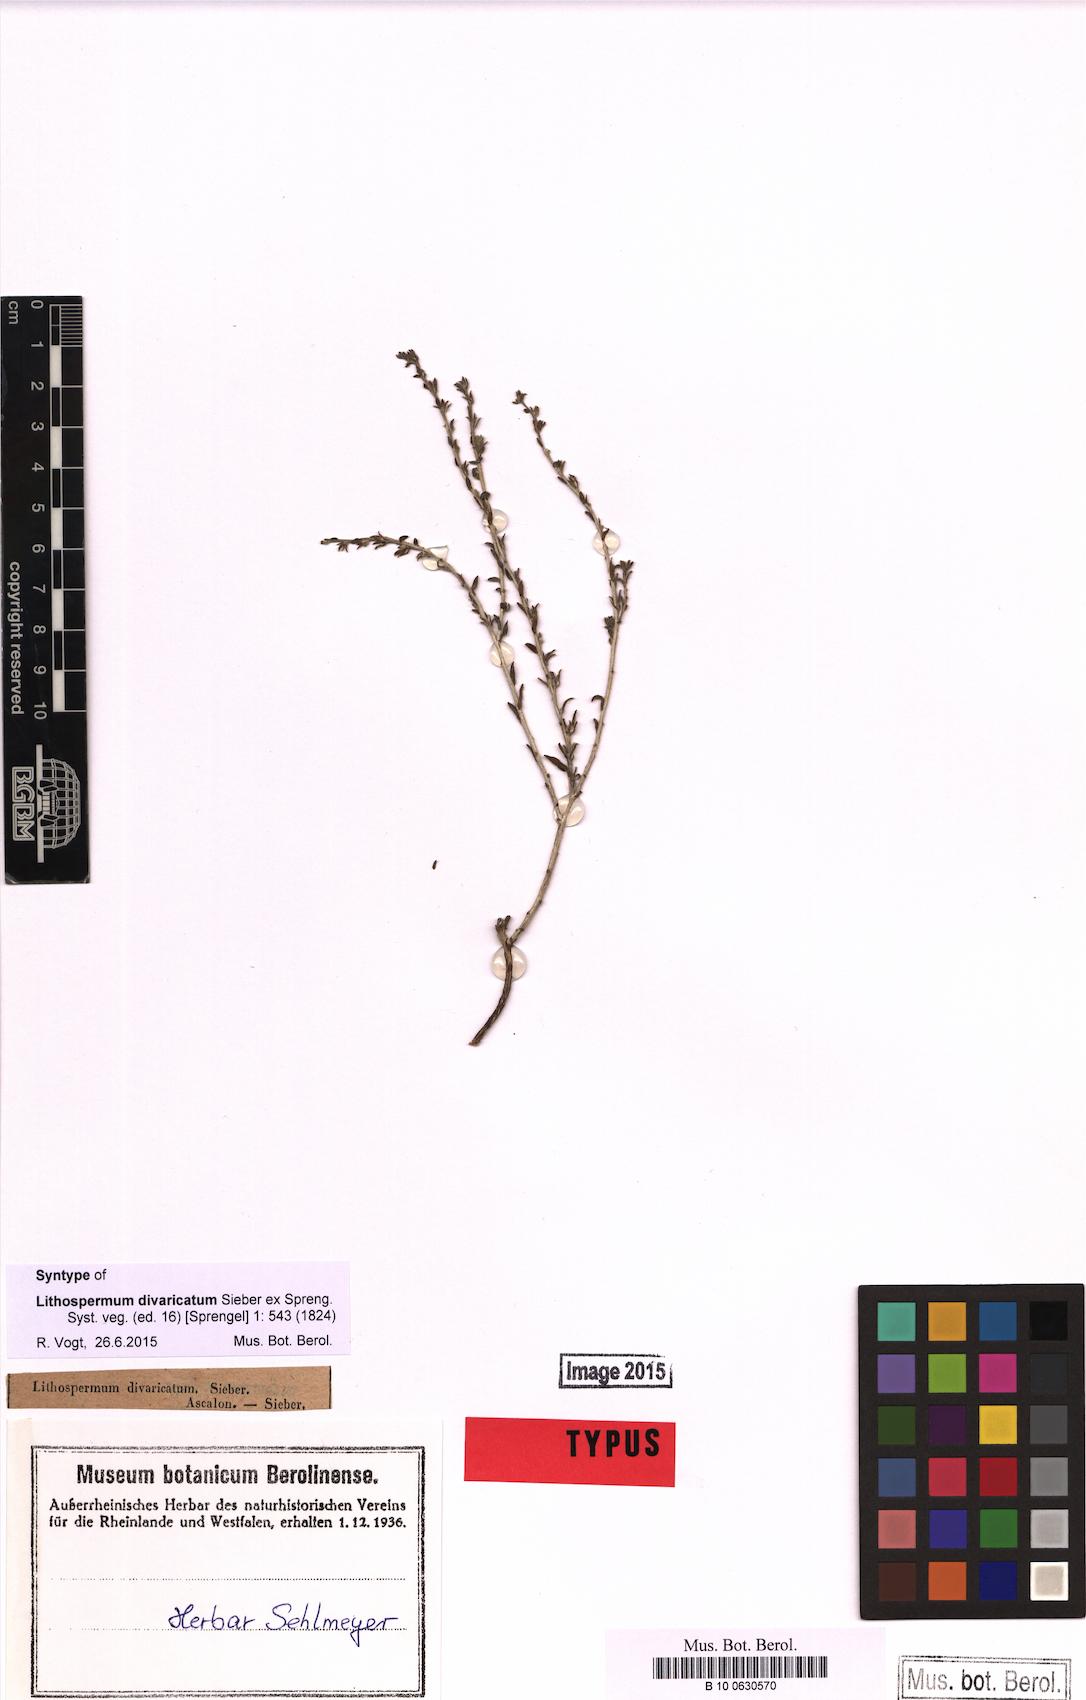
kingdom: Plantae
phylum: Tracheophyta
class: Magnoliopsida
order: Boraginales
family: Boraginaceae
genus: Echiochilon
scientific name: Echiochilon fruticosum
